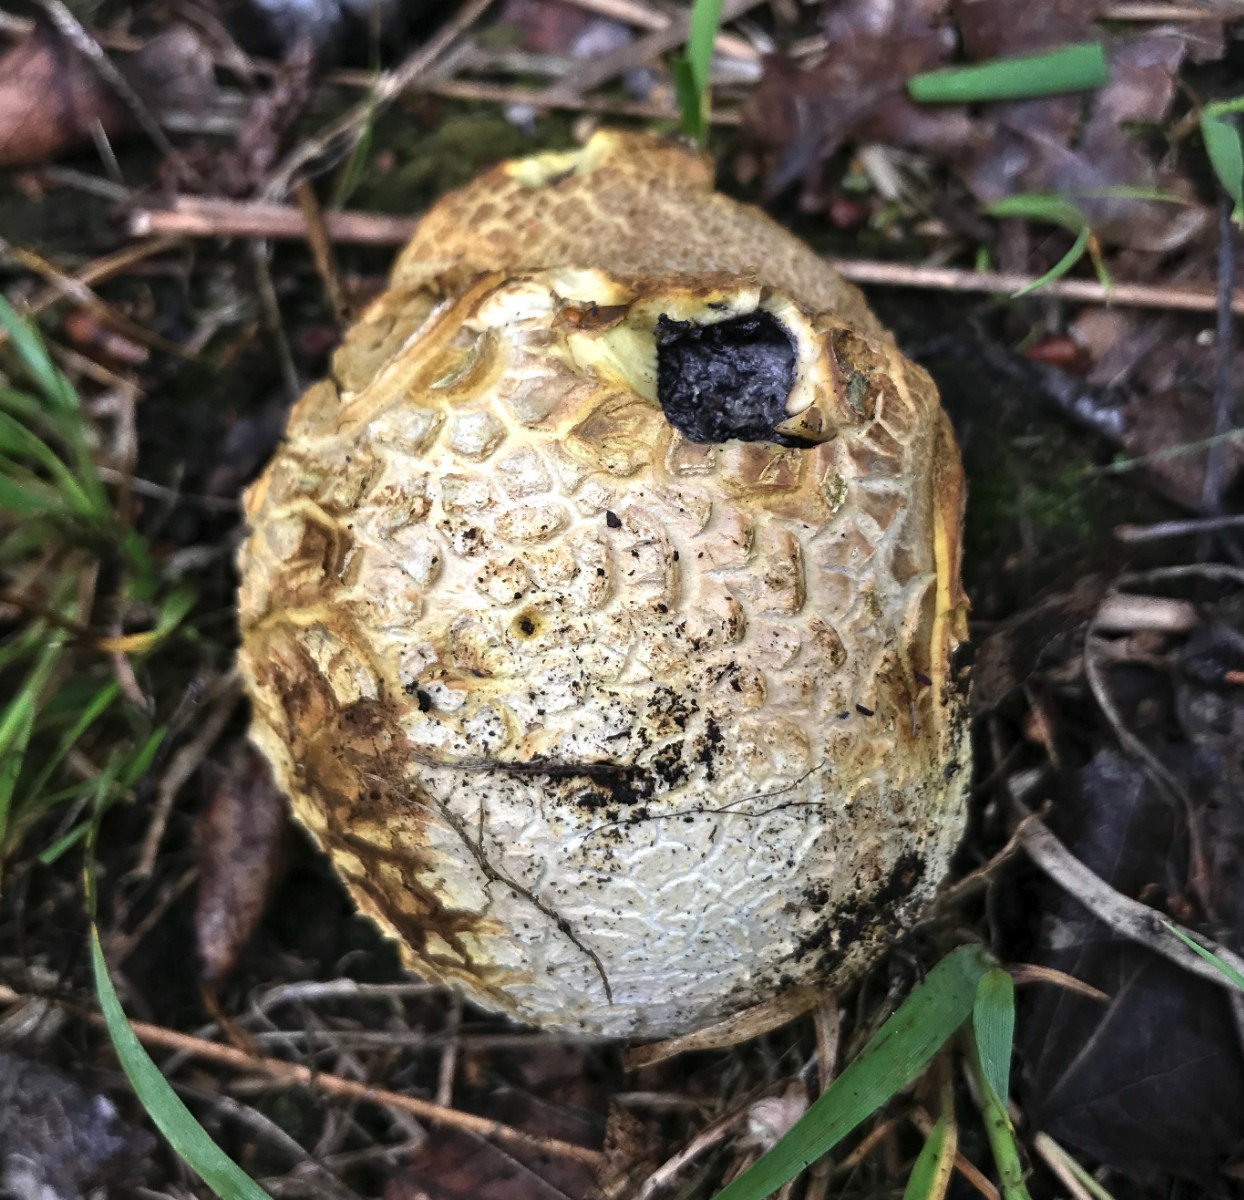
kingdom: Fungi
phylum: Basidiomycota
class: Agaricomycetes
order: Boletales
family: Sclerodermataceae
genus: Scleroderma
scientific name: Scleroderma citrinum
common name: almindelig bruskbold
